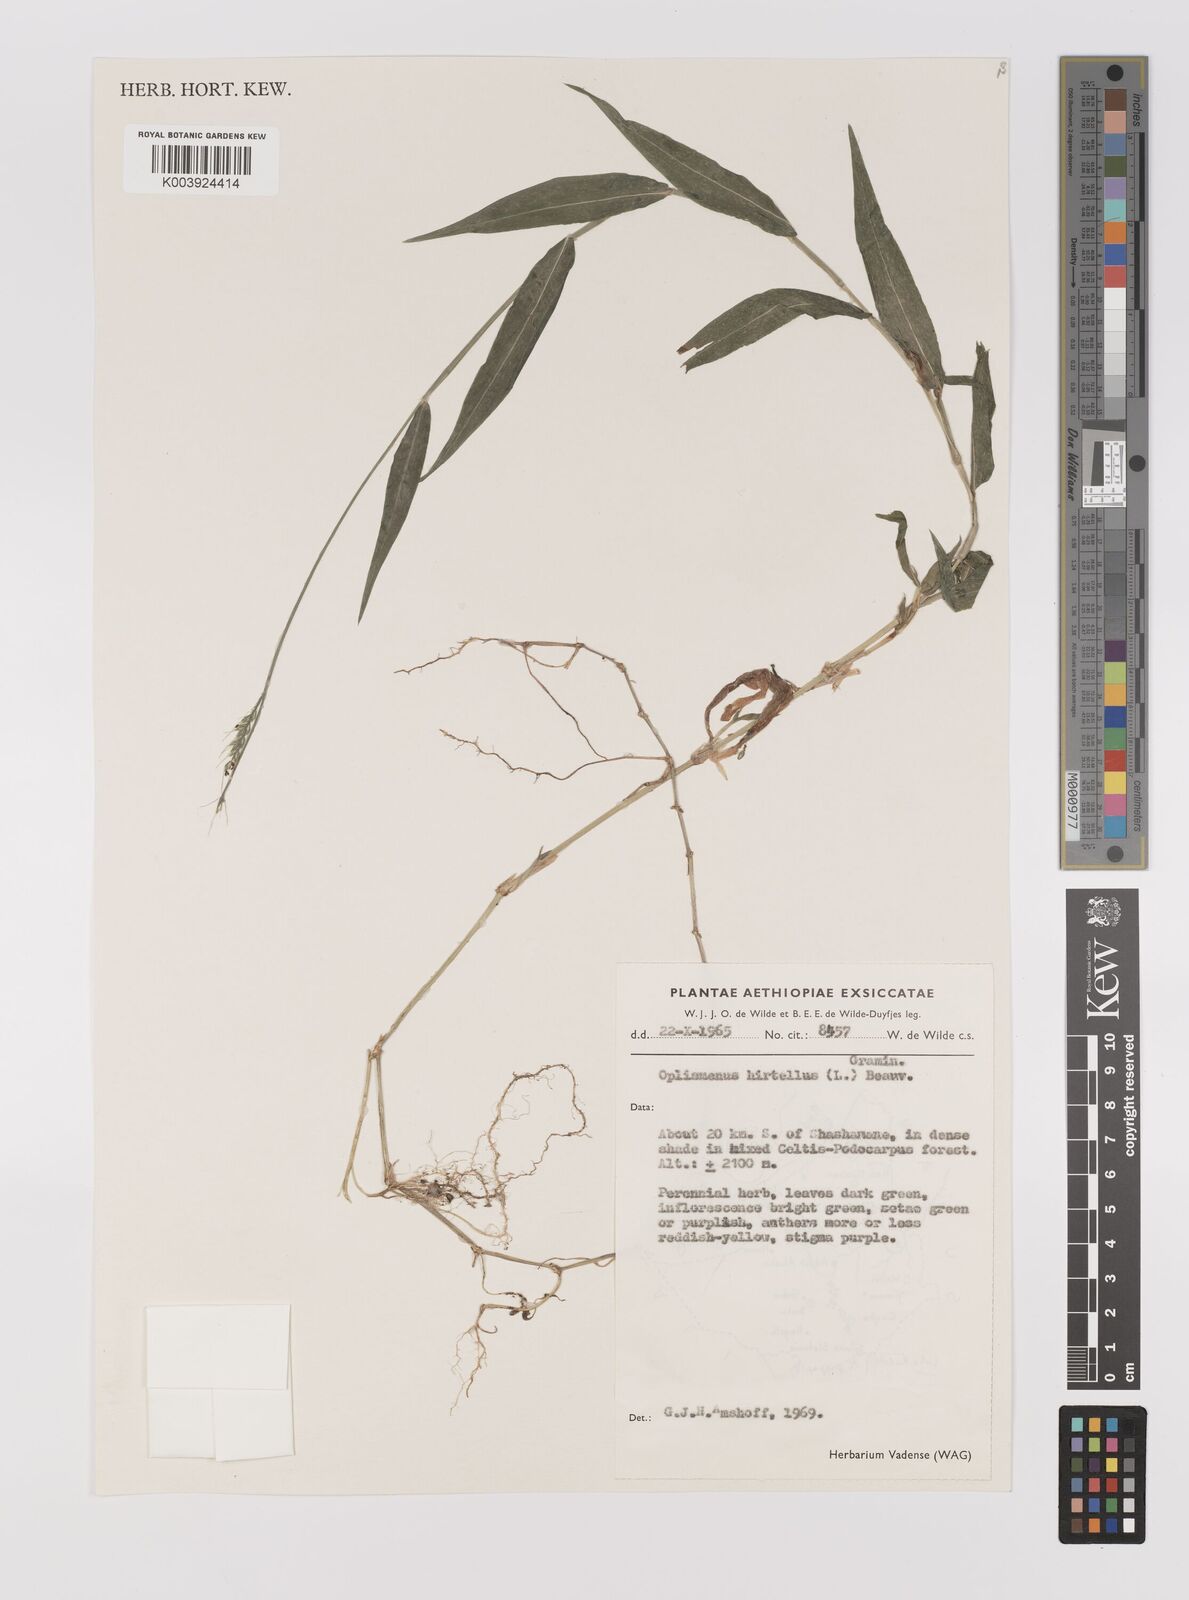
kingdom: Plantae
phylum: Tracheophyta
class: Liliopsida
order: Poales
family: Poaceae
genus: Oplismenus
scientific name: Oplismenus hirtellus
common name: Basketgrass
